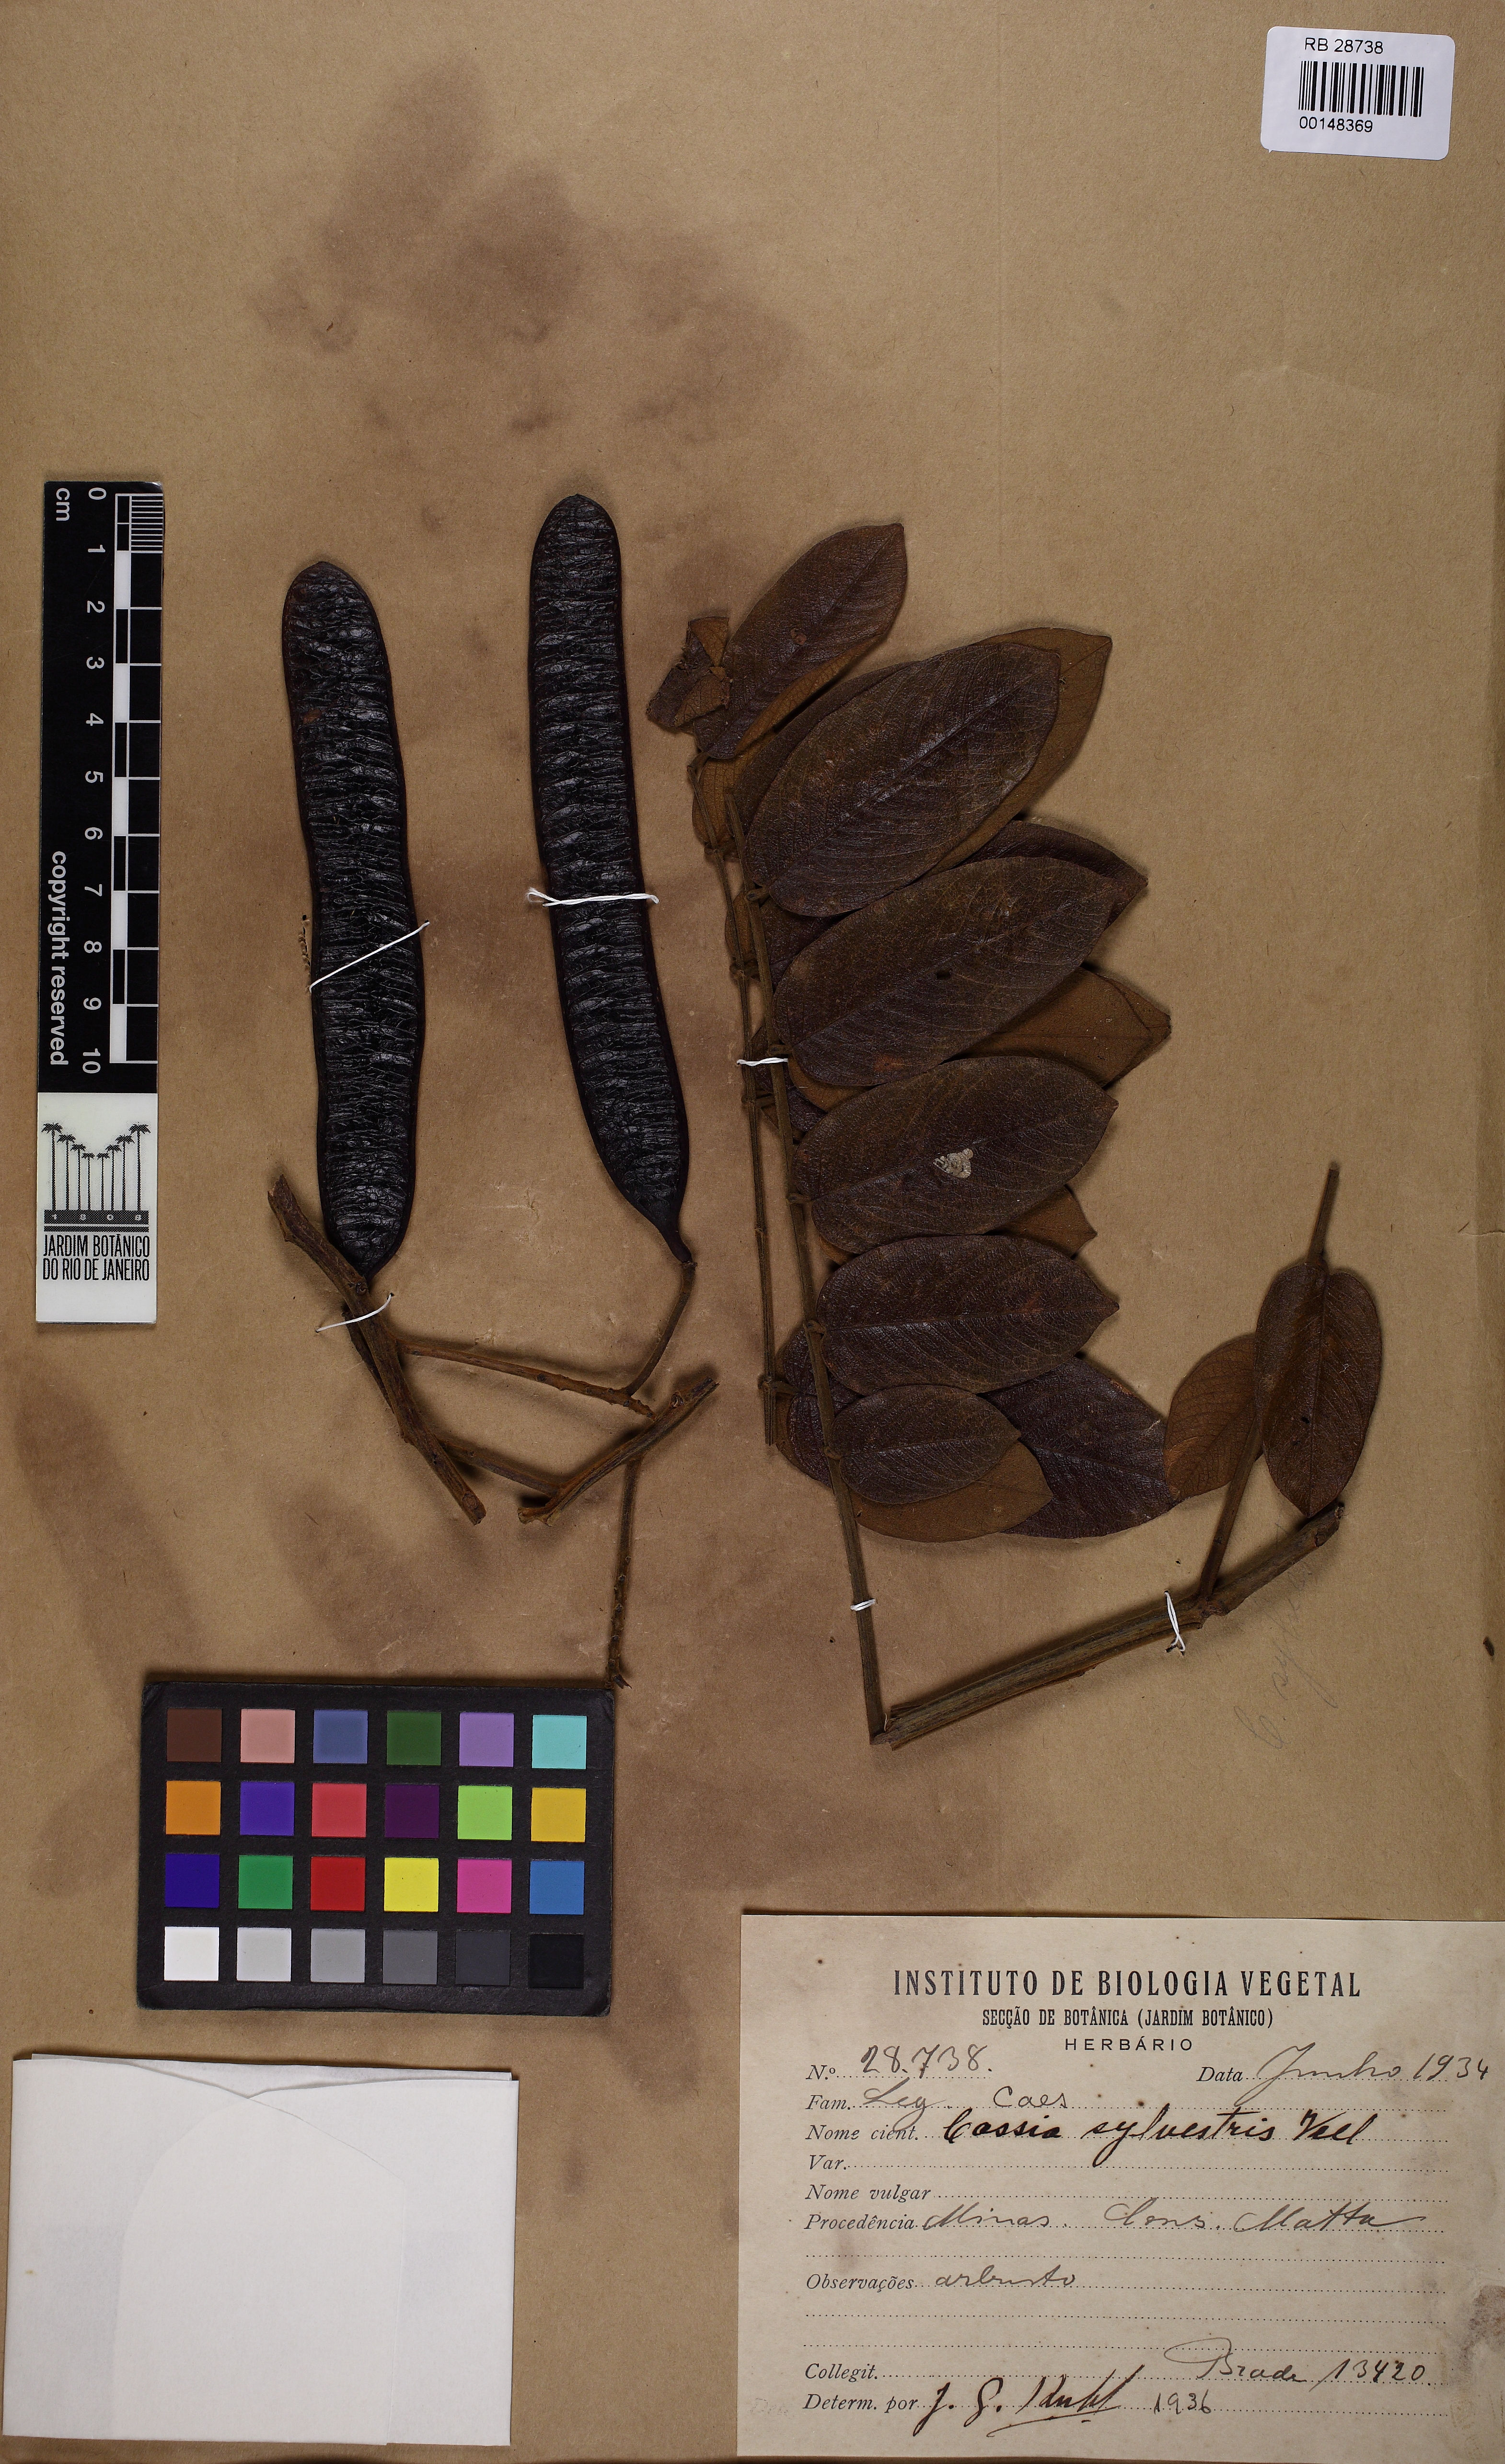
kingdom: Plantae
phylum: Tracheophyta
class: Magnoliopsida
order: Fabales
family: Fabaceae
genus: Senna
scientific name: Senna silvestris
